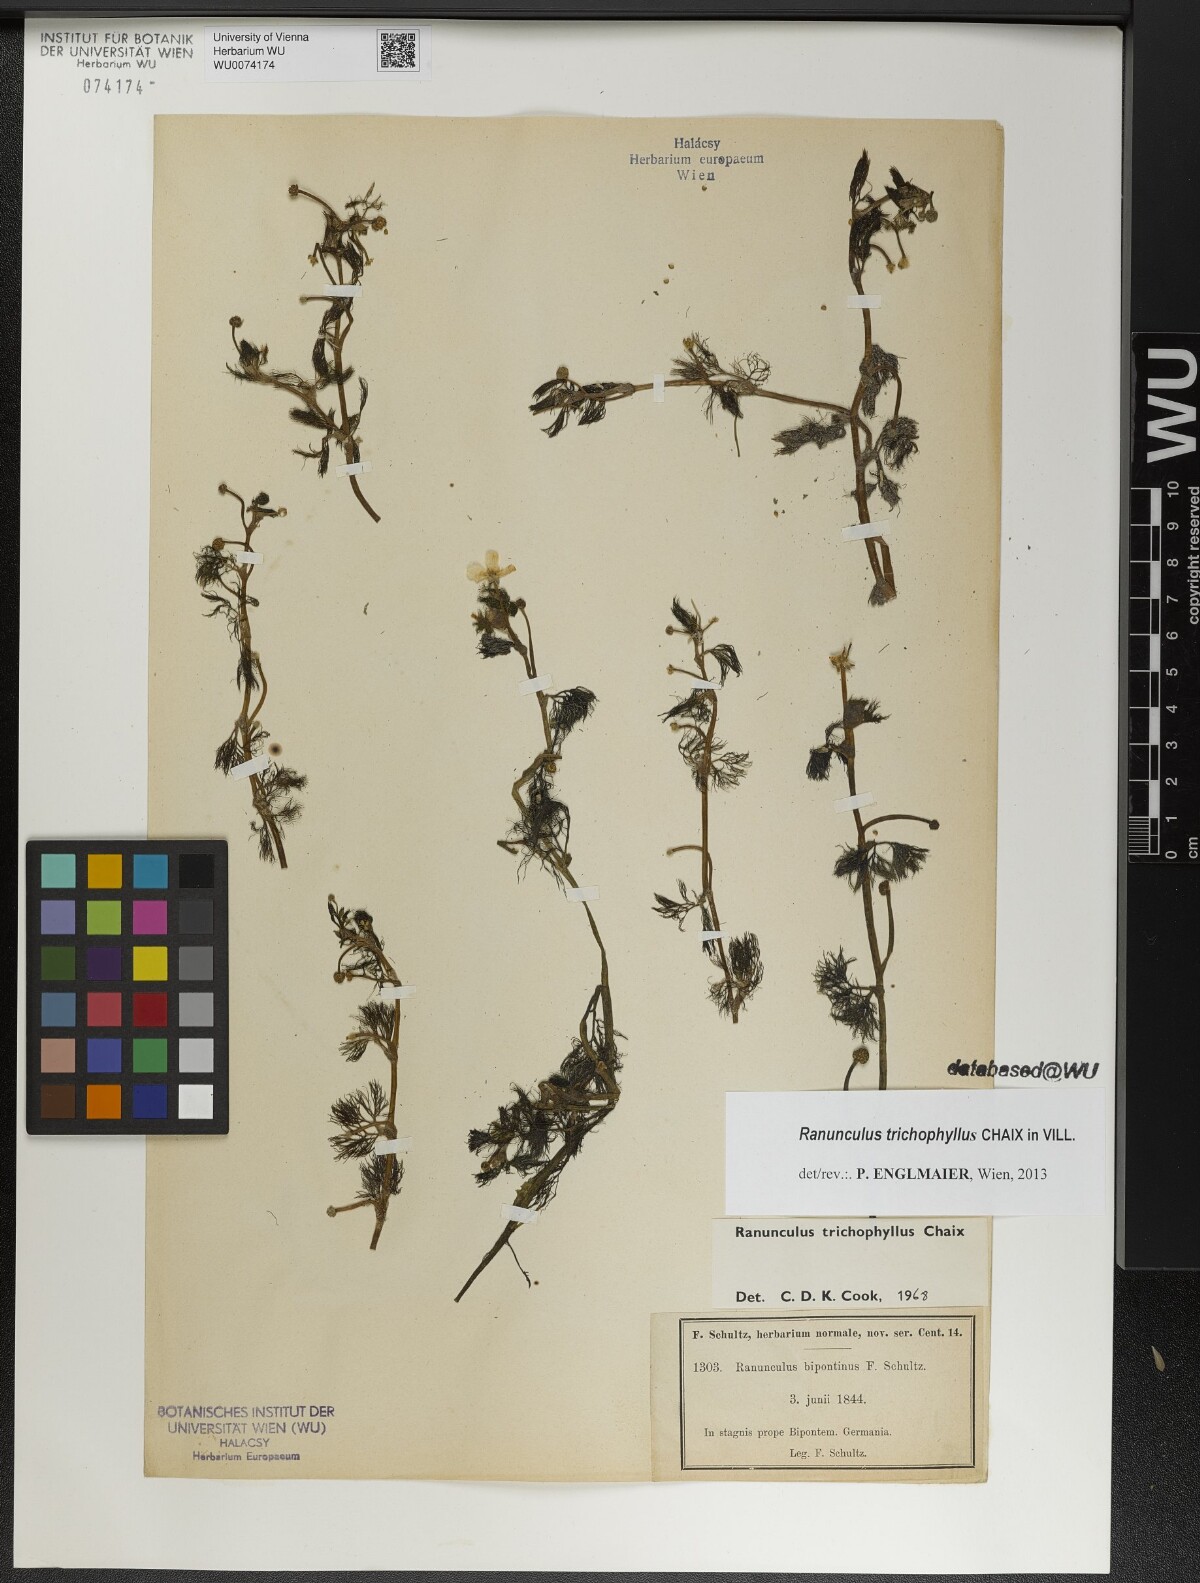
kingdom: Plantae
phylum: Tracheophyta
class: Magnoliopsida
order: Ranunculales
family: Ranunculaceae
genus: Ranunculus
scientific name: Ranunculus trichophyllus
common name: Thread-leaved water-crowfoot
